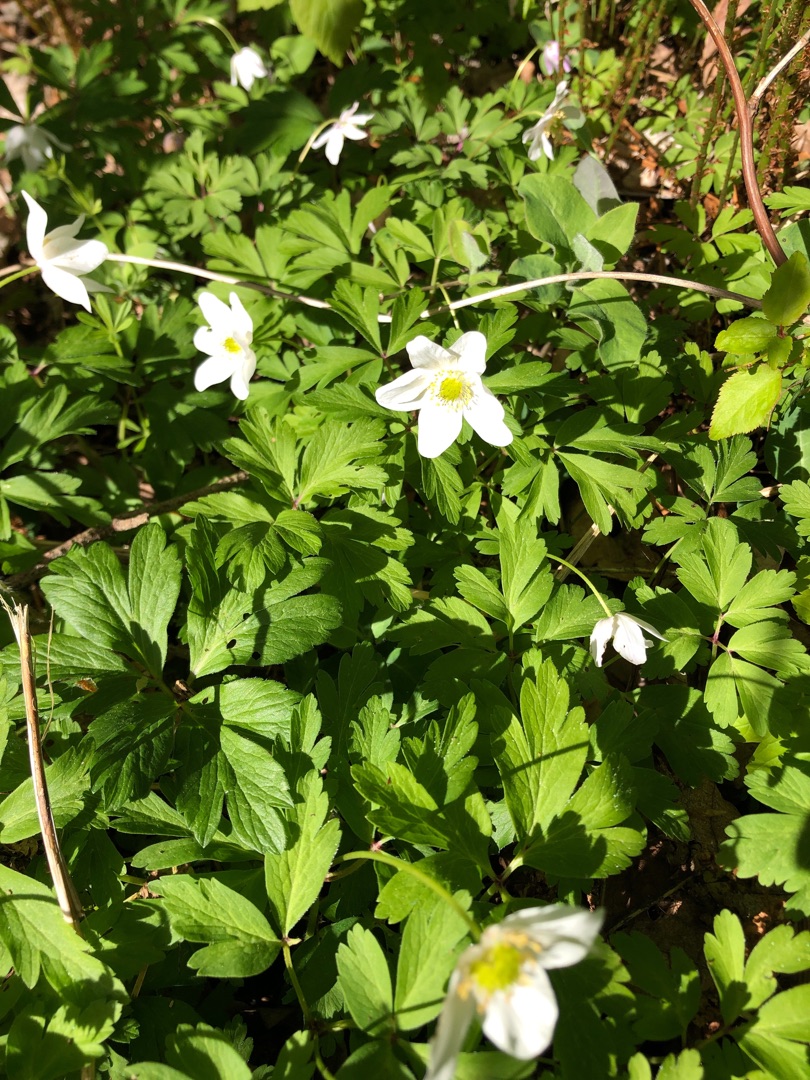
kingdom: Plantae
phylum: Tracheophyta
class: Magnoliopsida
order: Ranunculales
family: Ranunculaceae
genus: Anemone
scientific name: Anemone nemorosa
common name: Hvid anemone
